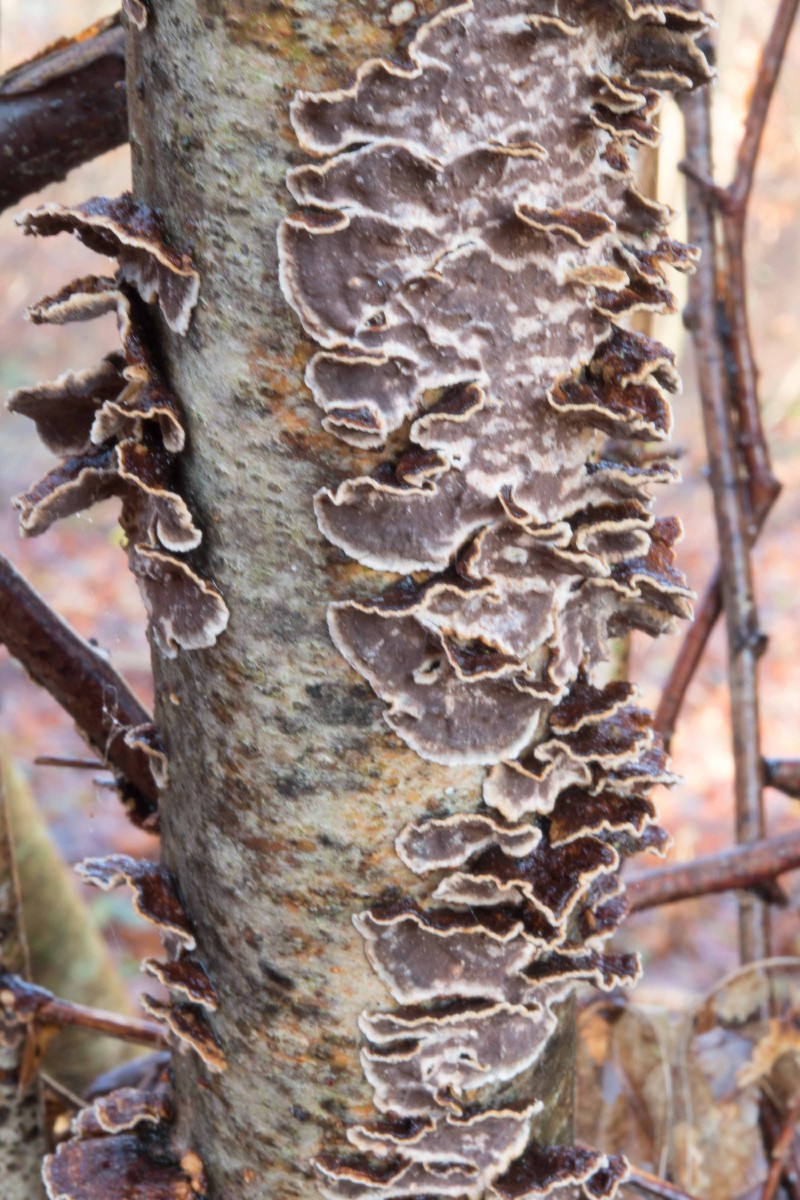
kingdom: Fungi
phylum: Basidiomycota
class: Agaricomycetes
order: Hymenochaetales
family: Hymenochaetaceae
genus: Hydnoporia
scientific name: Hydnoporia tabacina
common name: tobaksbrun ruslædersvamp
